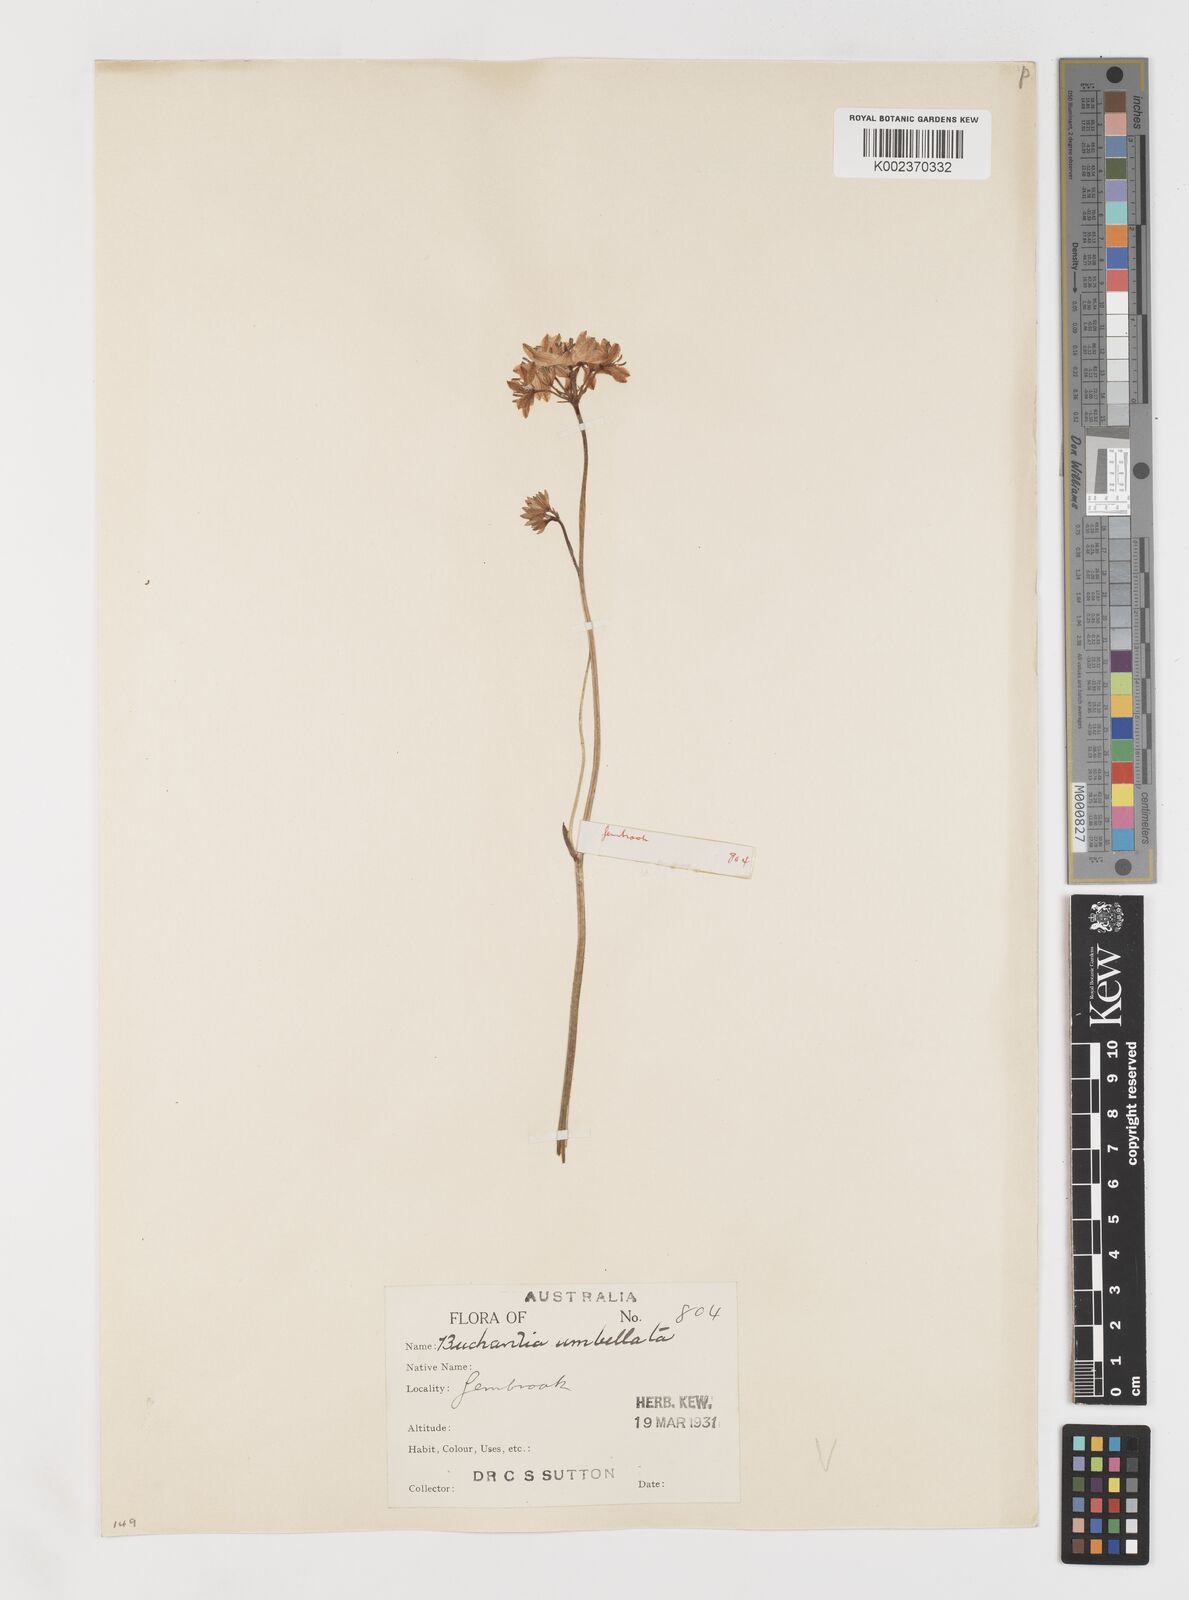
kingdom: Plantae
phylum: Tracheophyta
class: Liliopsida
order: Liliales
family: Colchicaceae
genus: Burchardia
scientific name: Burchardia umbellata
